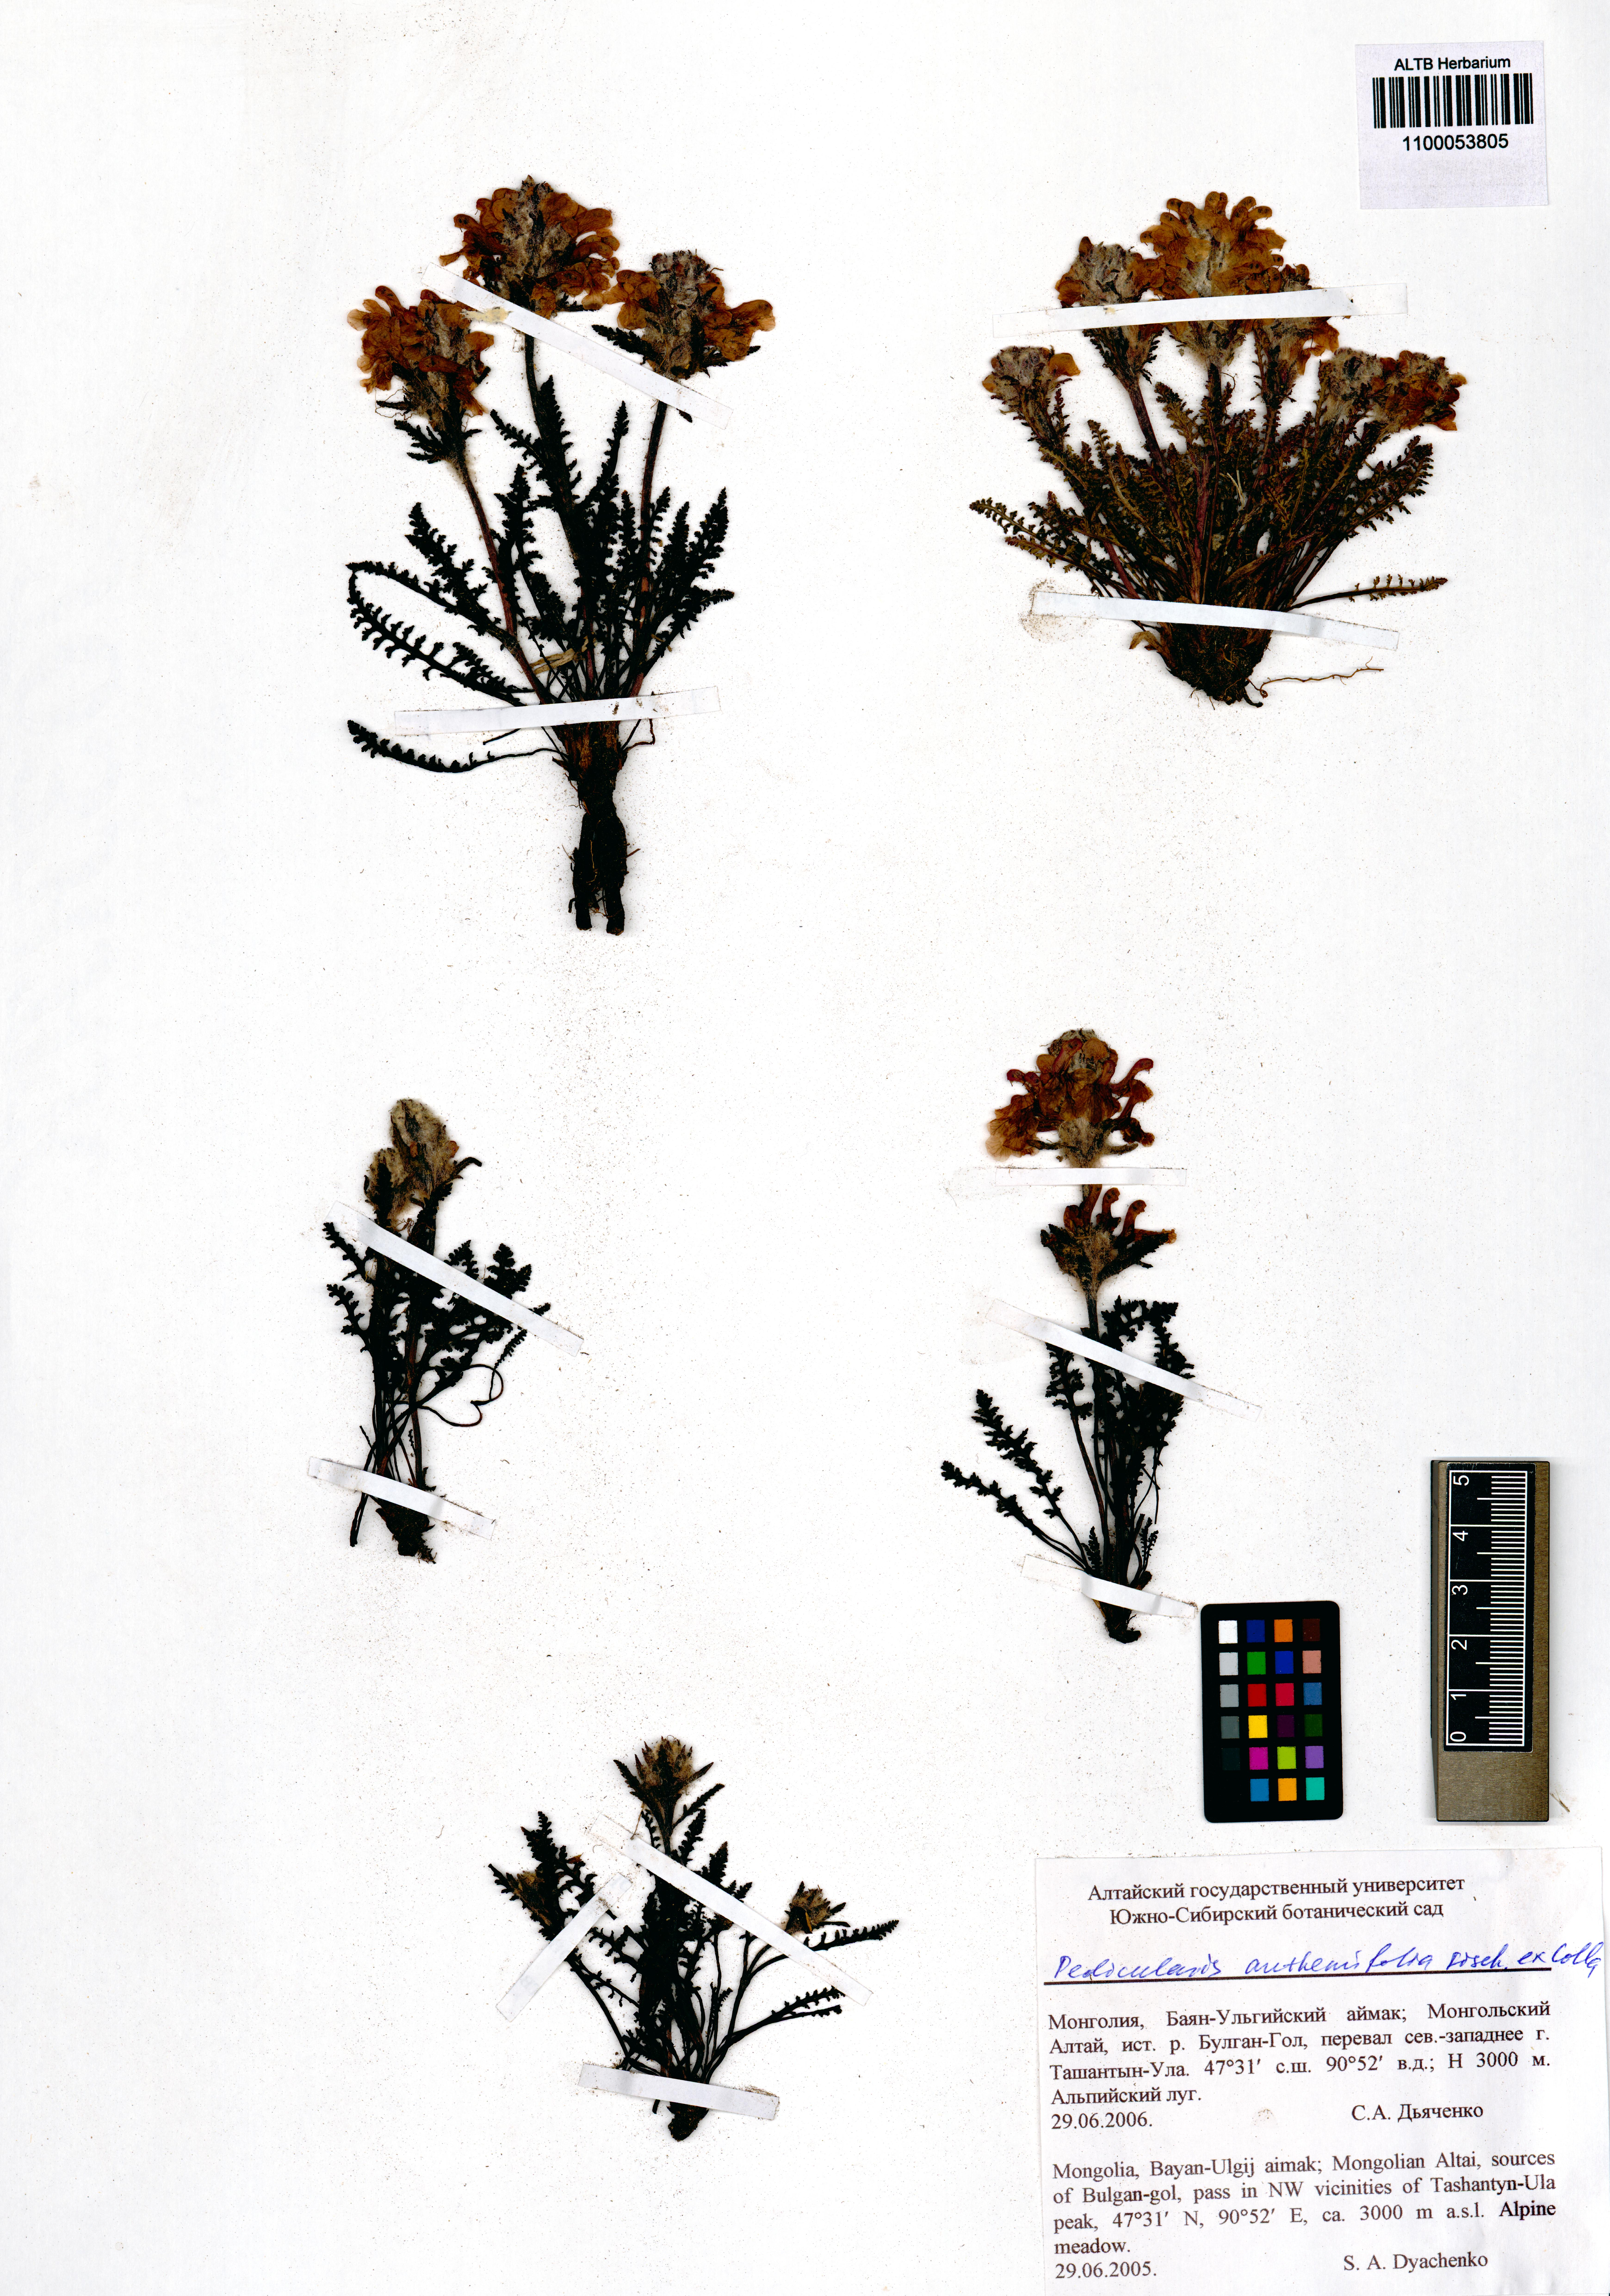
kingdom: Plantae
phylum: Tracheophyta
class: Magnoliopsida
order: Lamiales
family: Orobanchaceae
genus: Pedicularis
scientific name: Pedicularis anthemifolia
